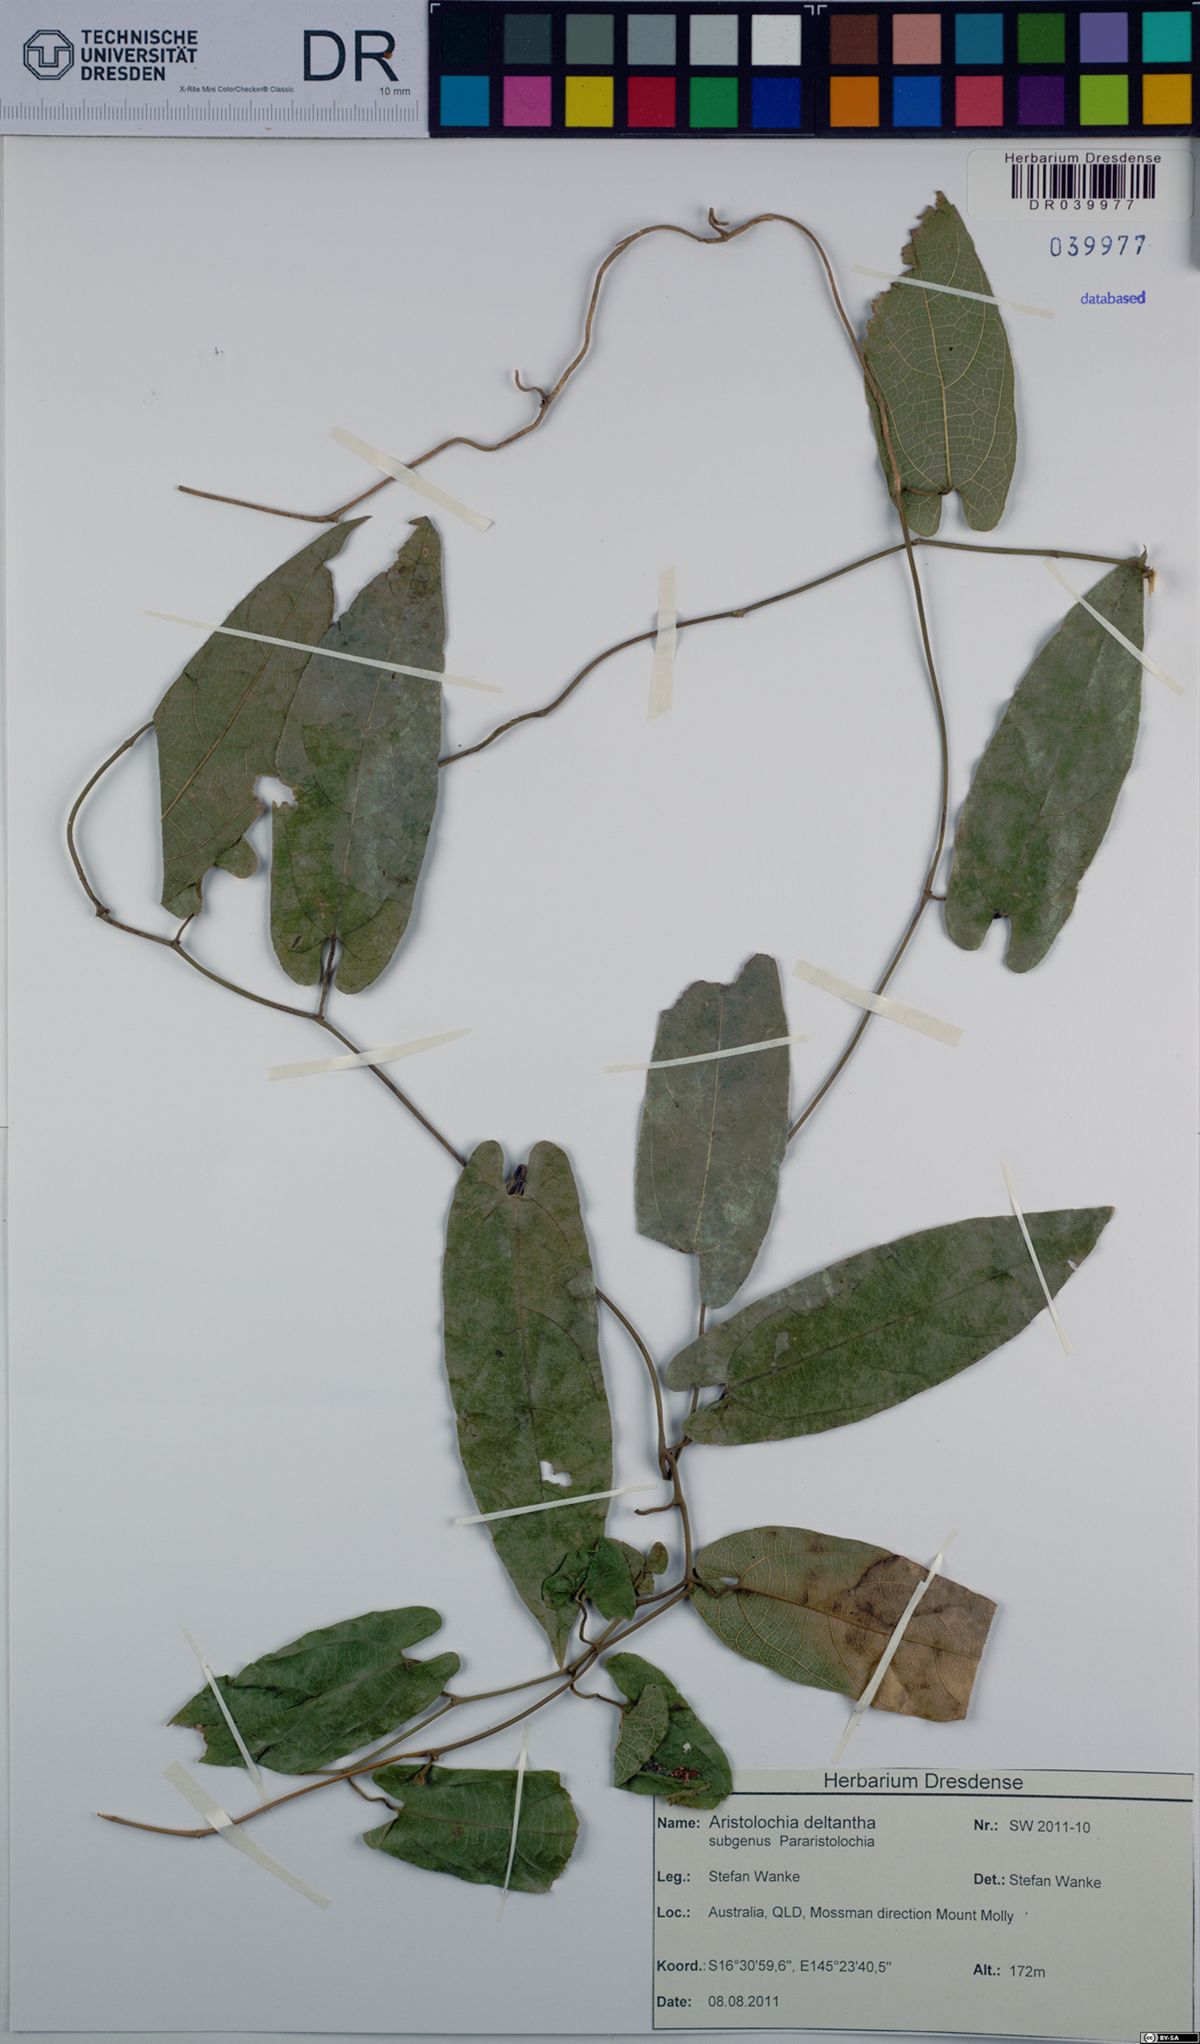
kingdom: Plantae
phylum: Tracheophyta
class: Magnoliopsida
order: Piperales
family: Aristolochiaceae
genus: Aristolochia
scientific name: Aristolochia deltantha
